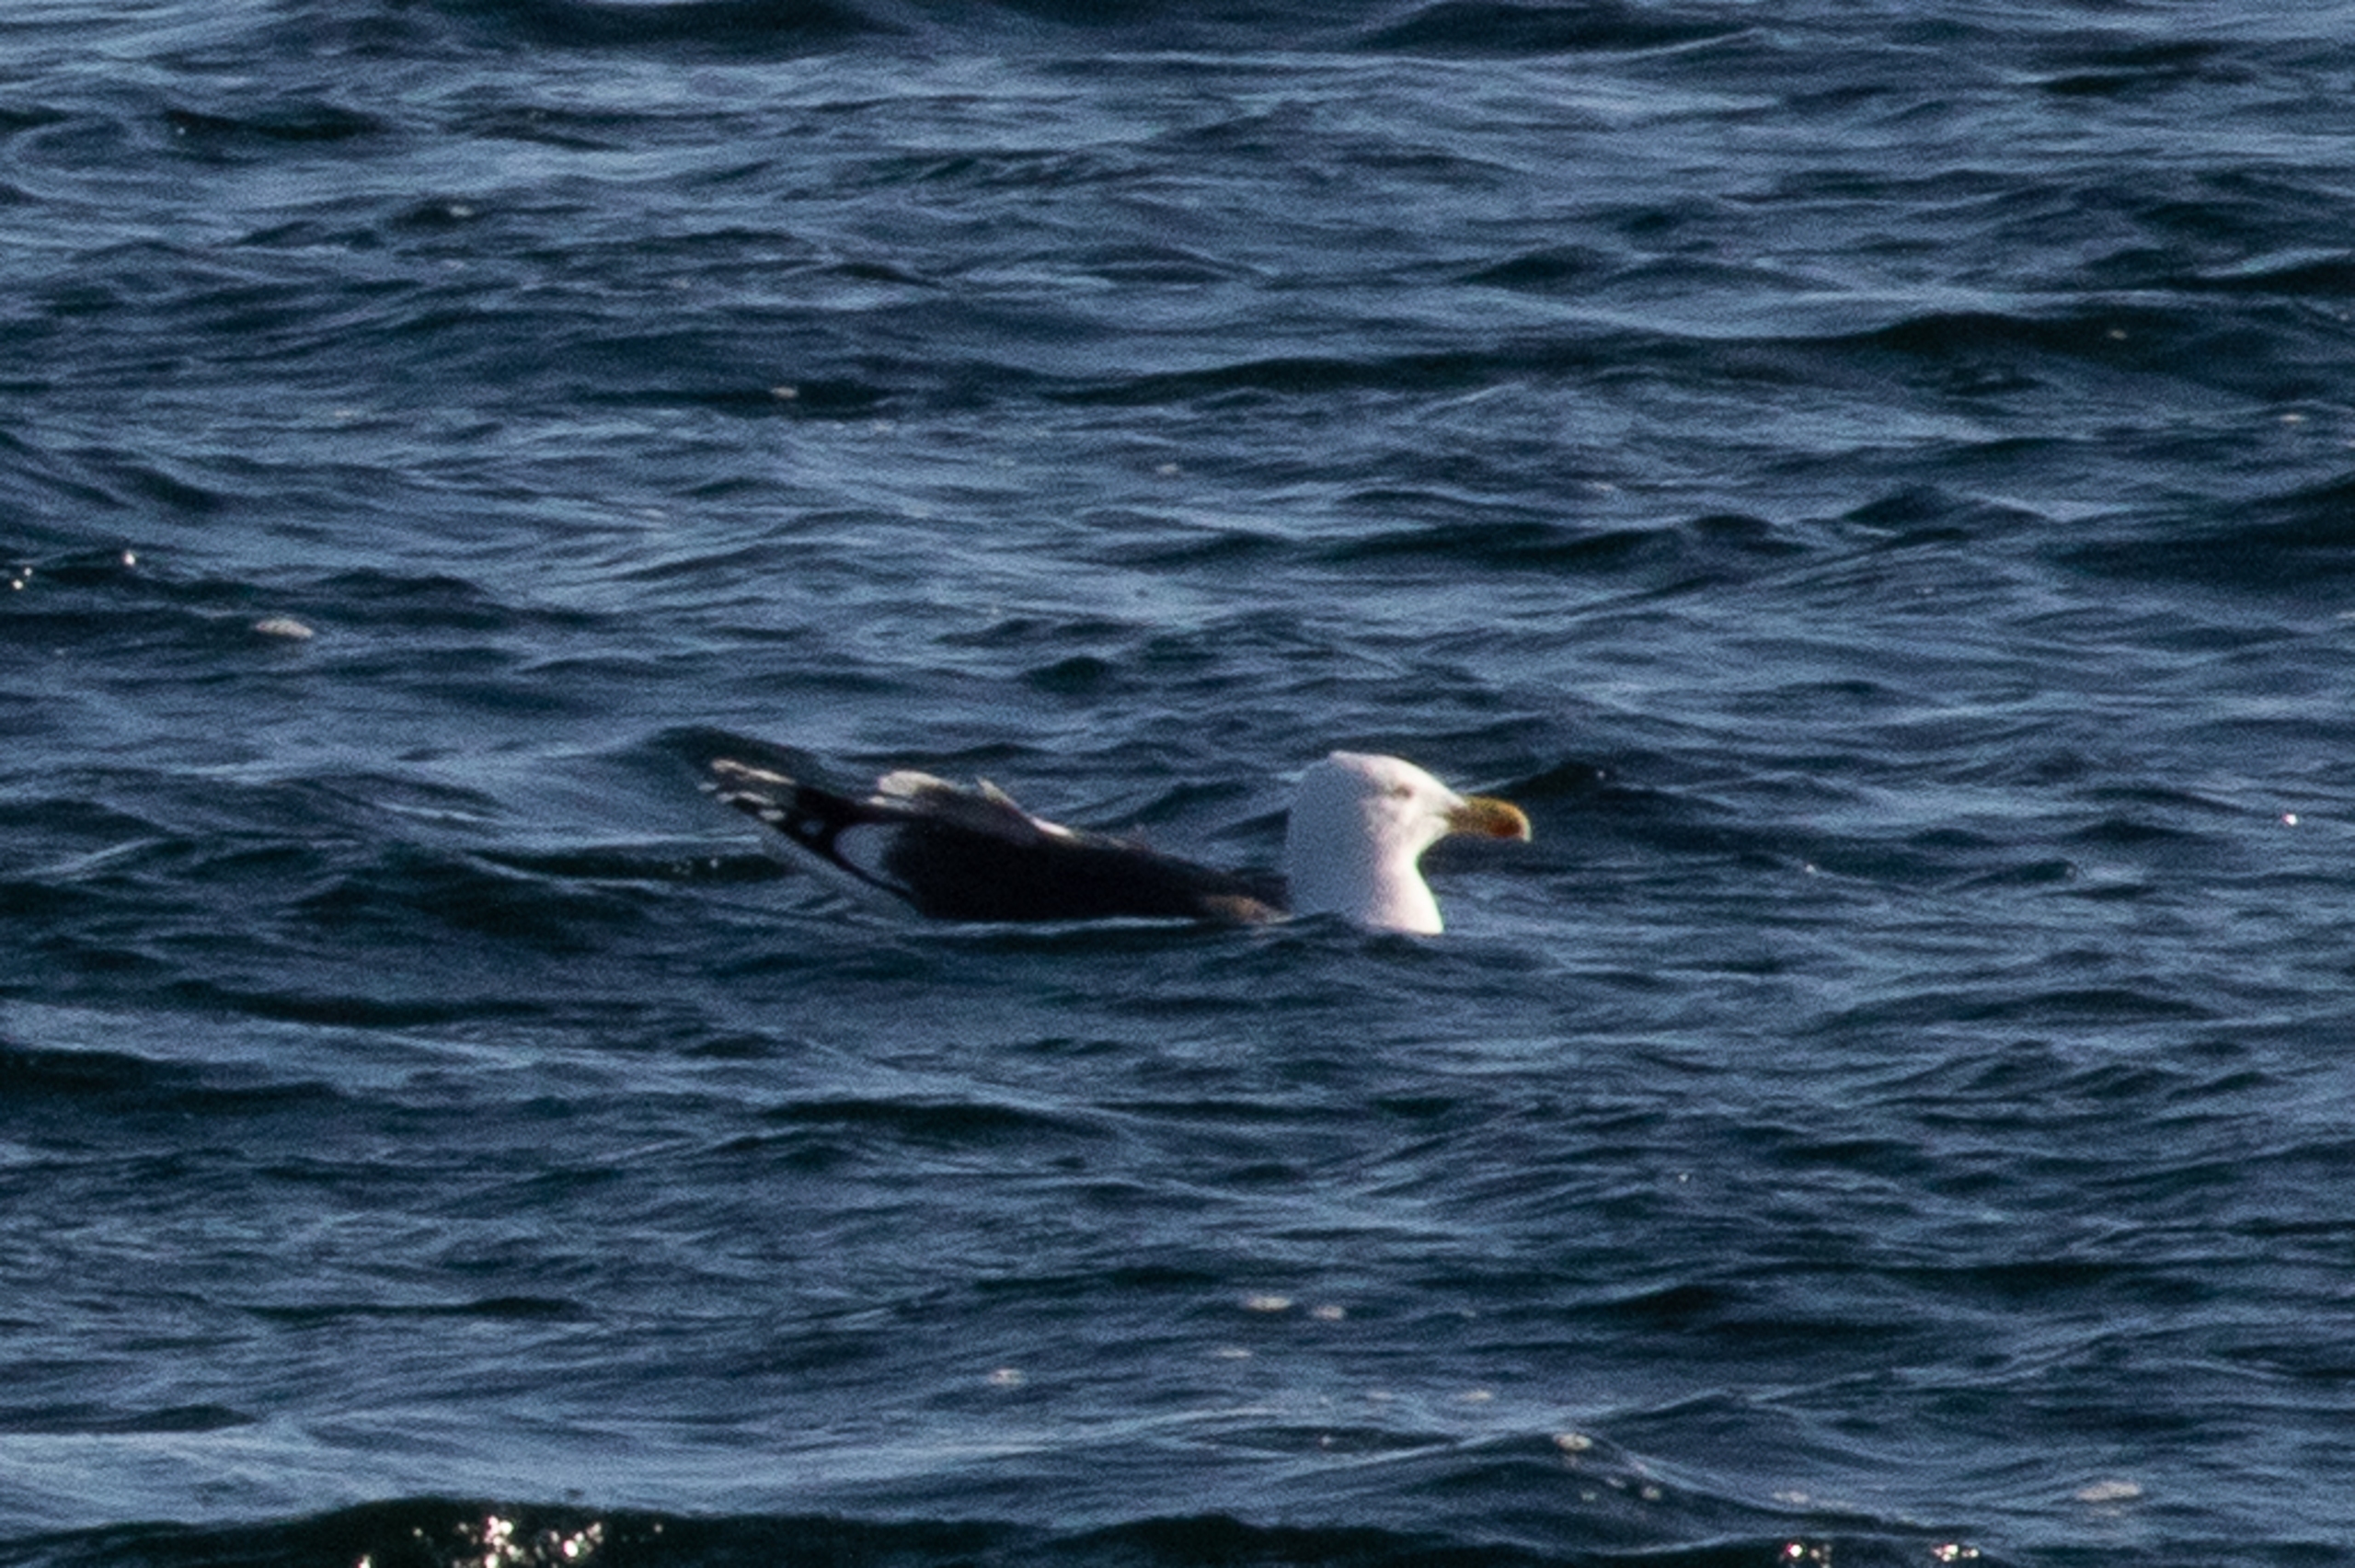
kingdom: Animalia
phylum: Chordata
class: Aves
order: Charadriiformes
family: Laridae
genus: Larus
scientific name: Larus marinus
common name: Svartbag
